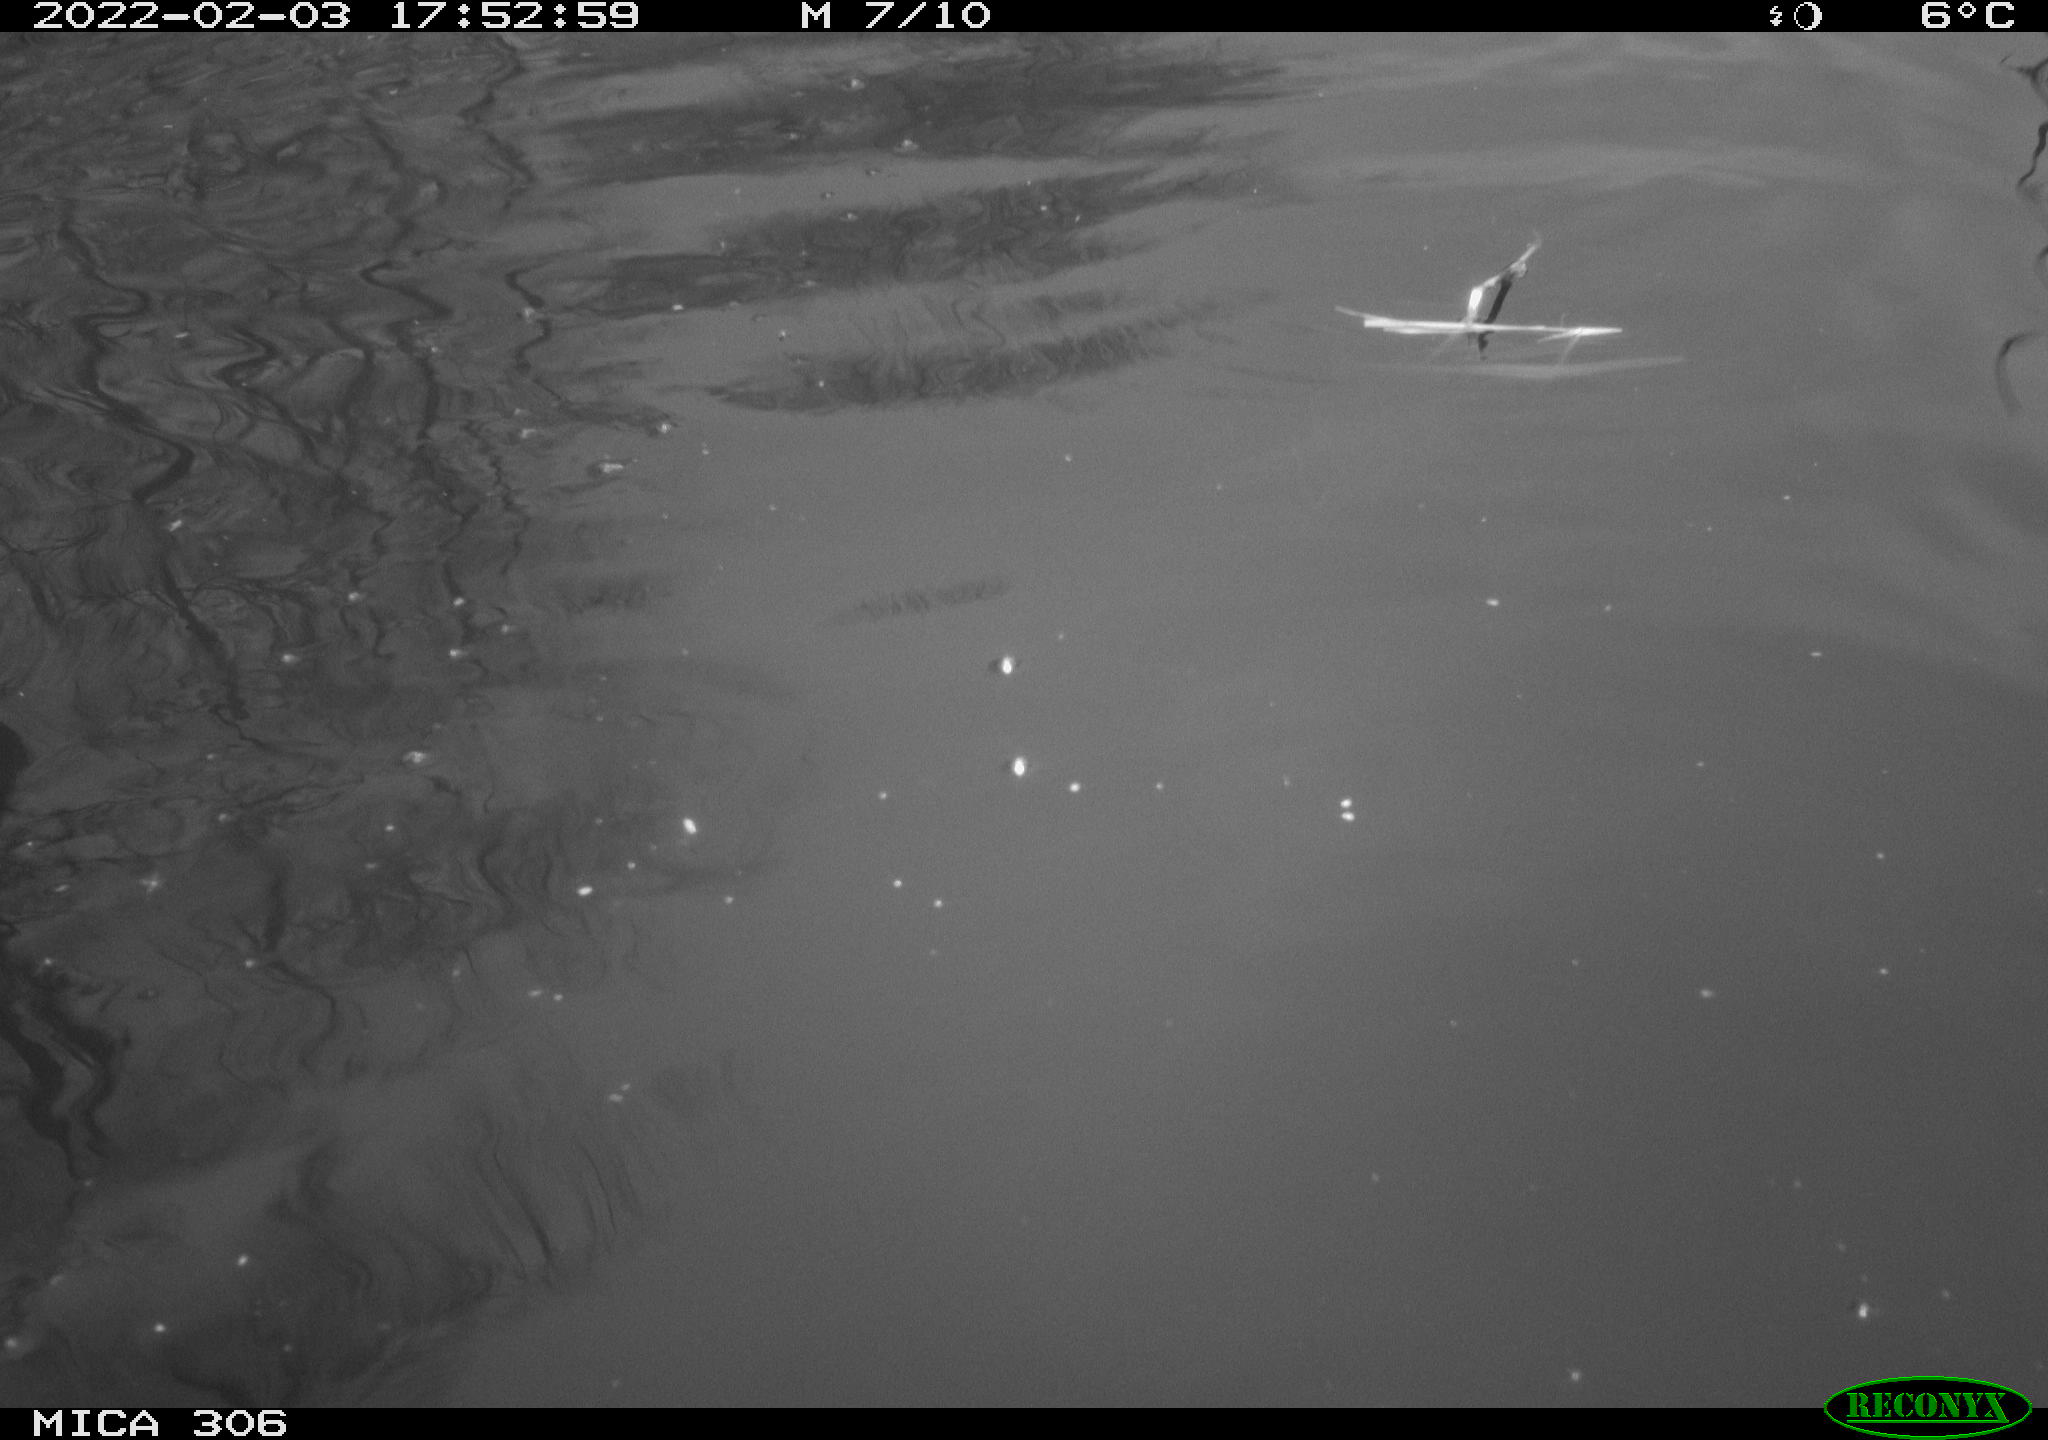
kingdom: Animalia
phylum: Chordata
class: Mammalia
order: Rodentia
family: Cricetidae
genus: Ondatra
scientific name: Ondatra zibethicus
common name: Muskrat
